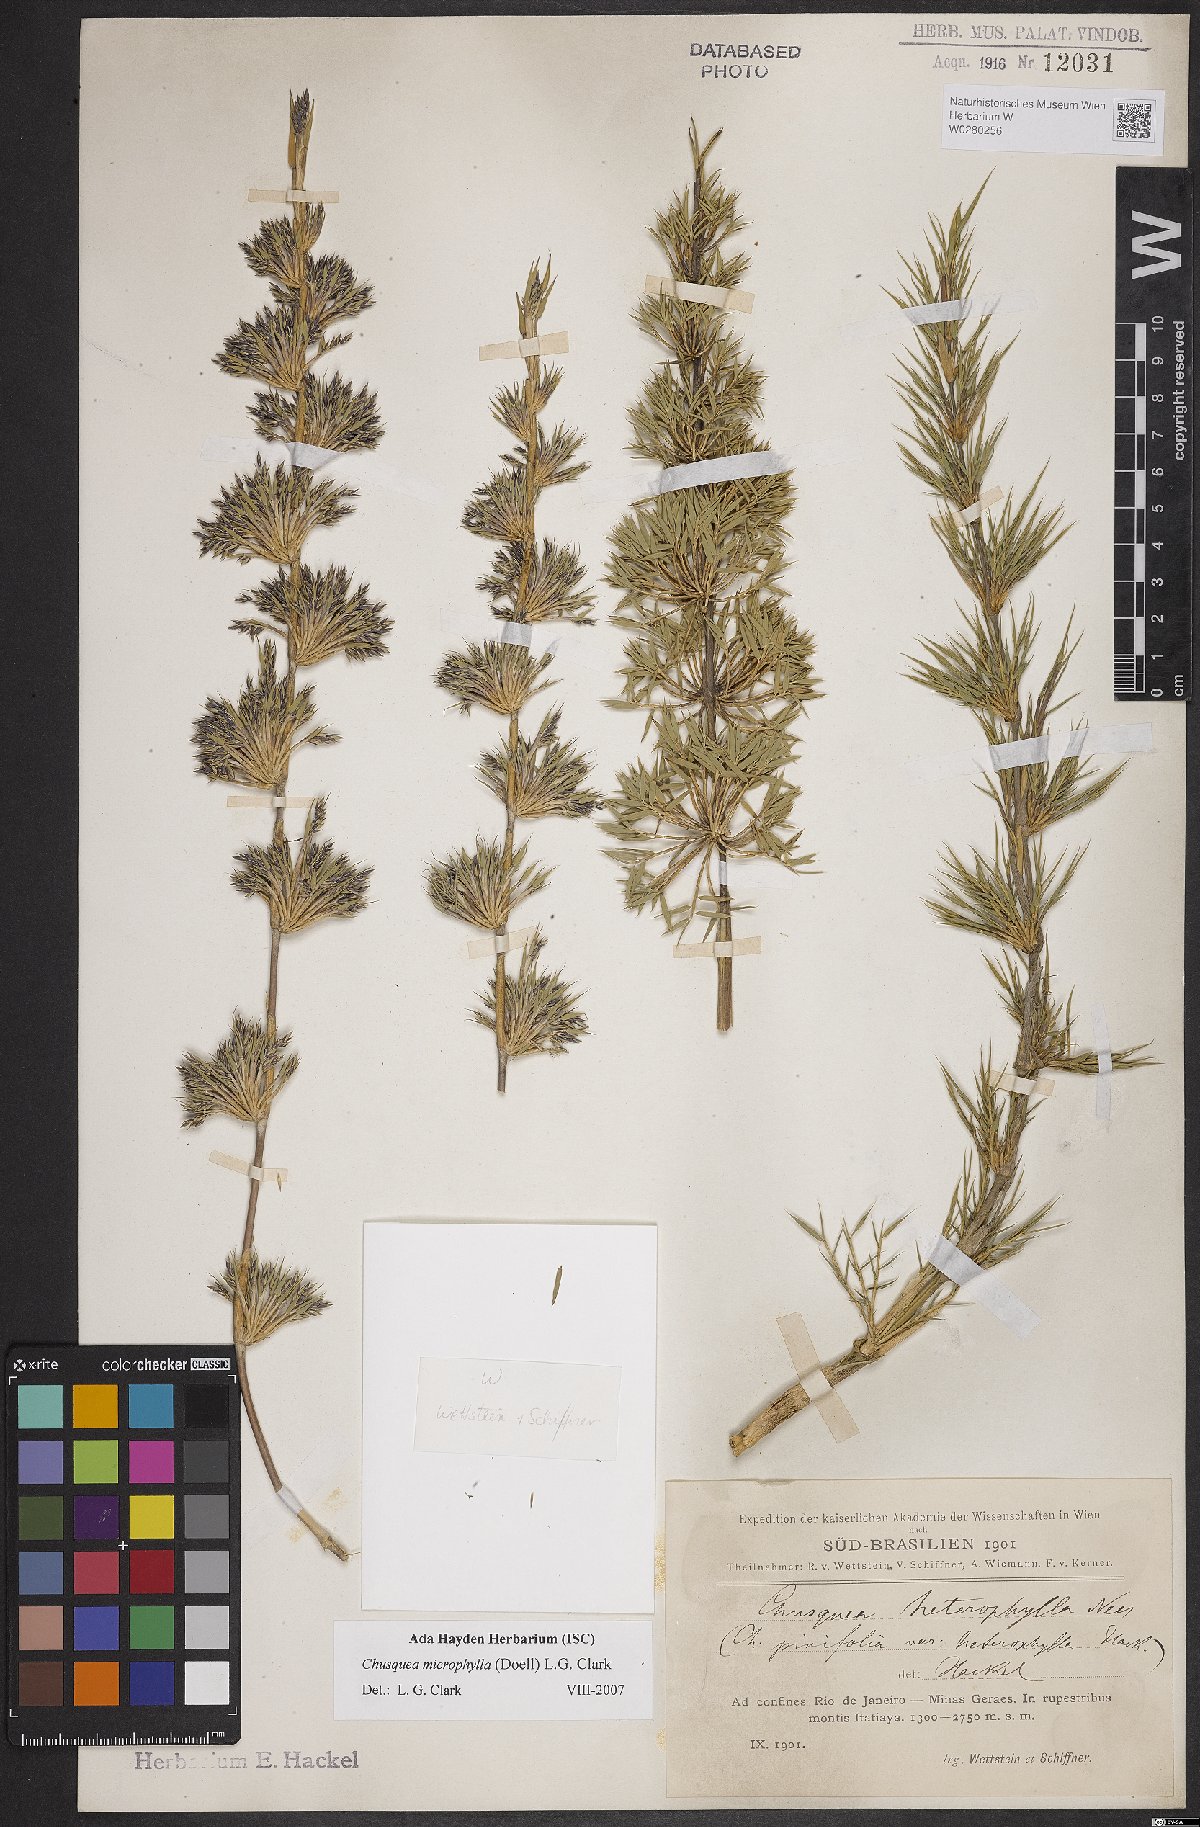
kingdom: Plantae
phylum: Tracheophyta
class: Liliopsida
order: Poales
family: Poaceae
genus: Chusquea
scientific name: Chusquea microphylla
